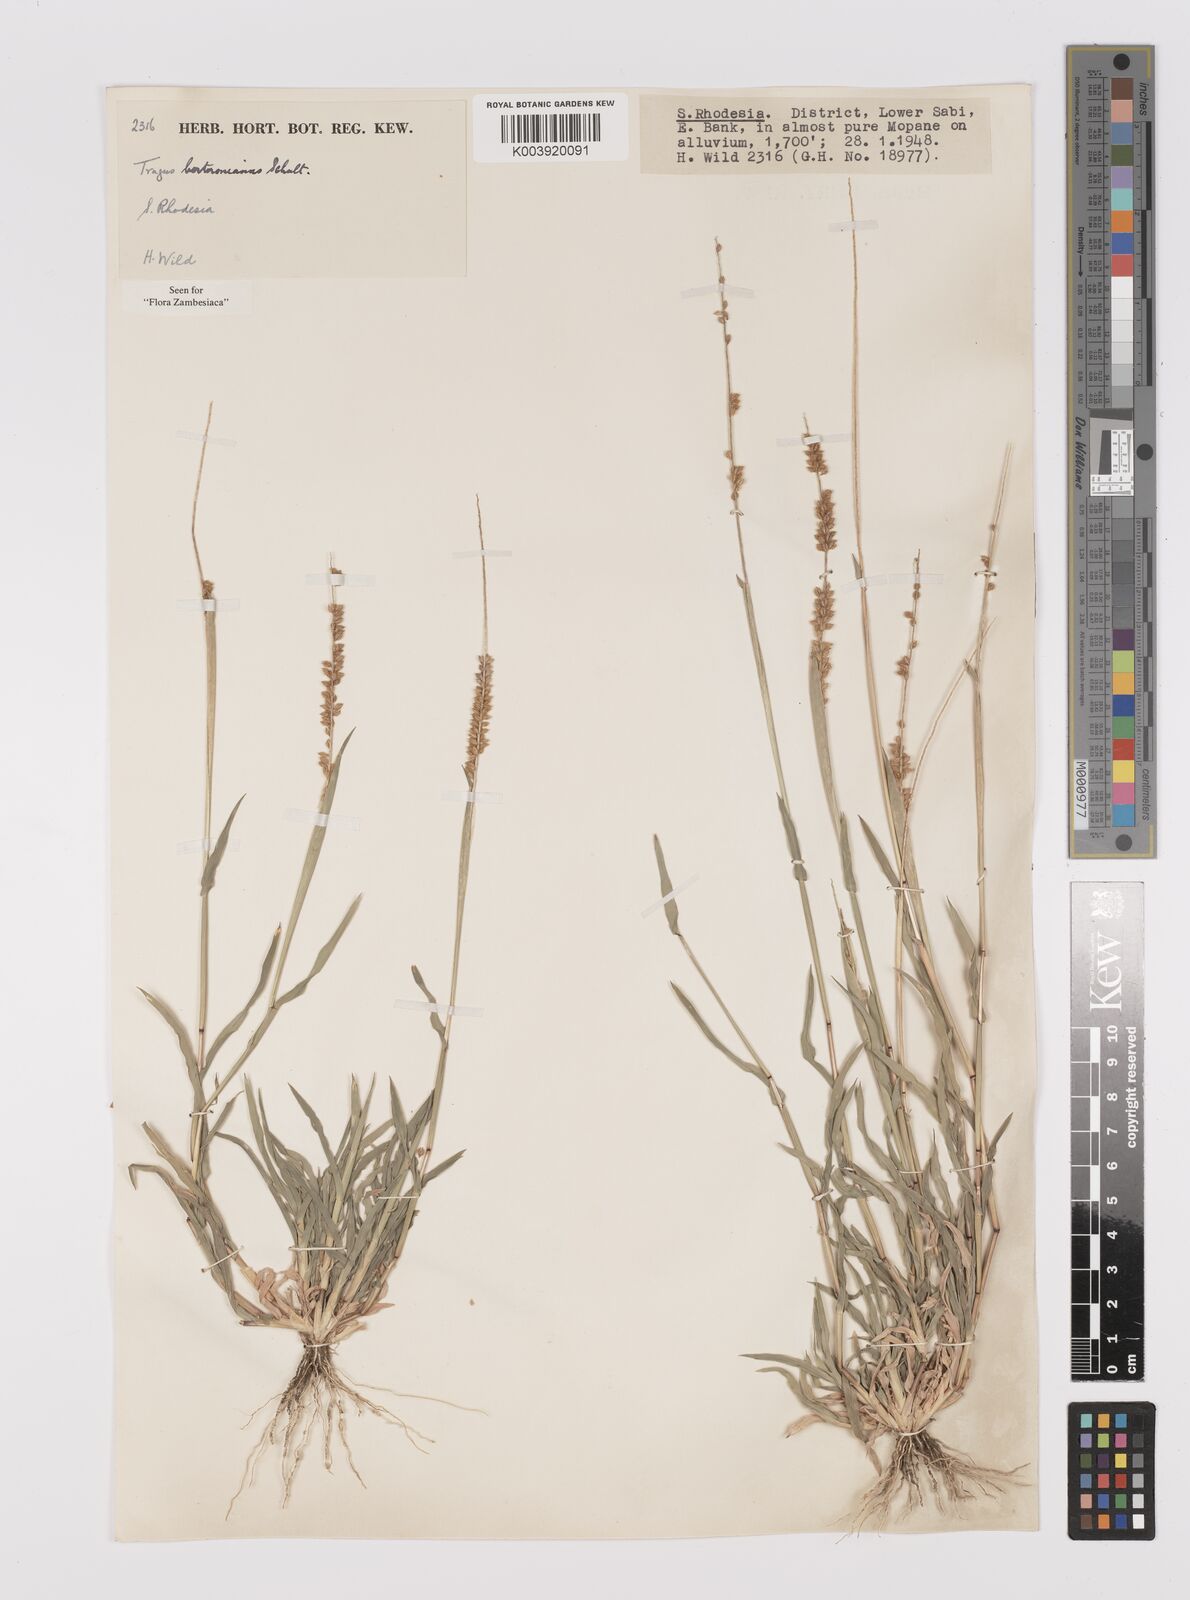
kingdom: Plantae
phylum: Tracheophyta
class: Liliopsida
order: Poales
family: Poaceae
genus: Tragus
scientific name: Tragus berteronianus
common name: African bur-grass
